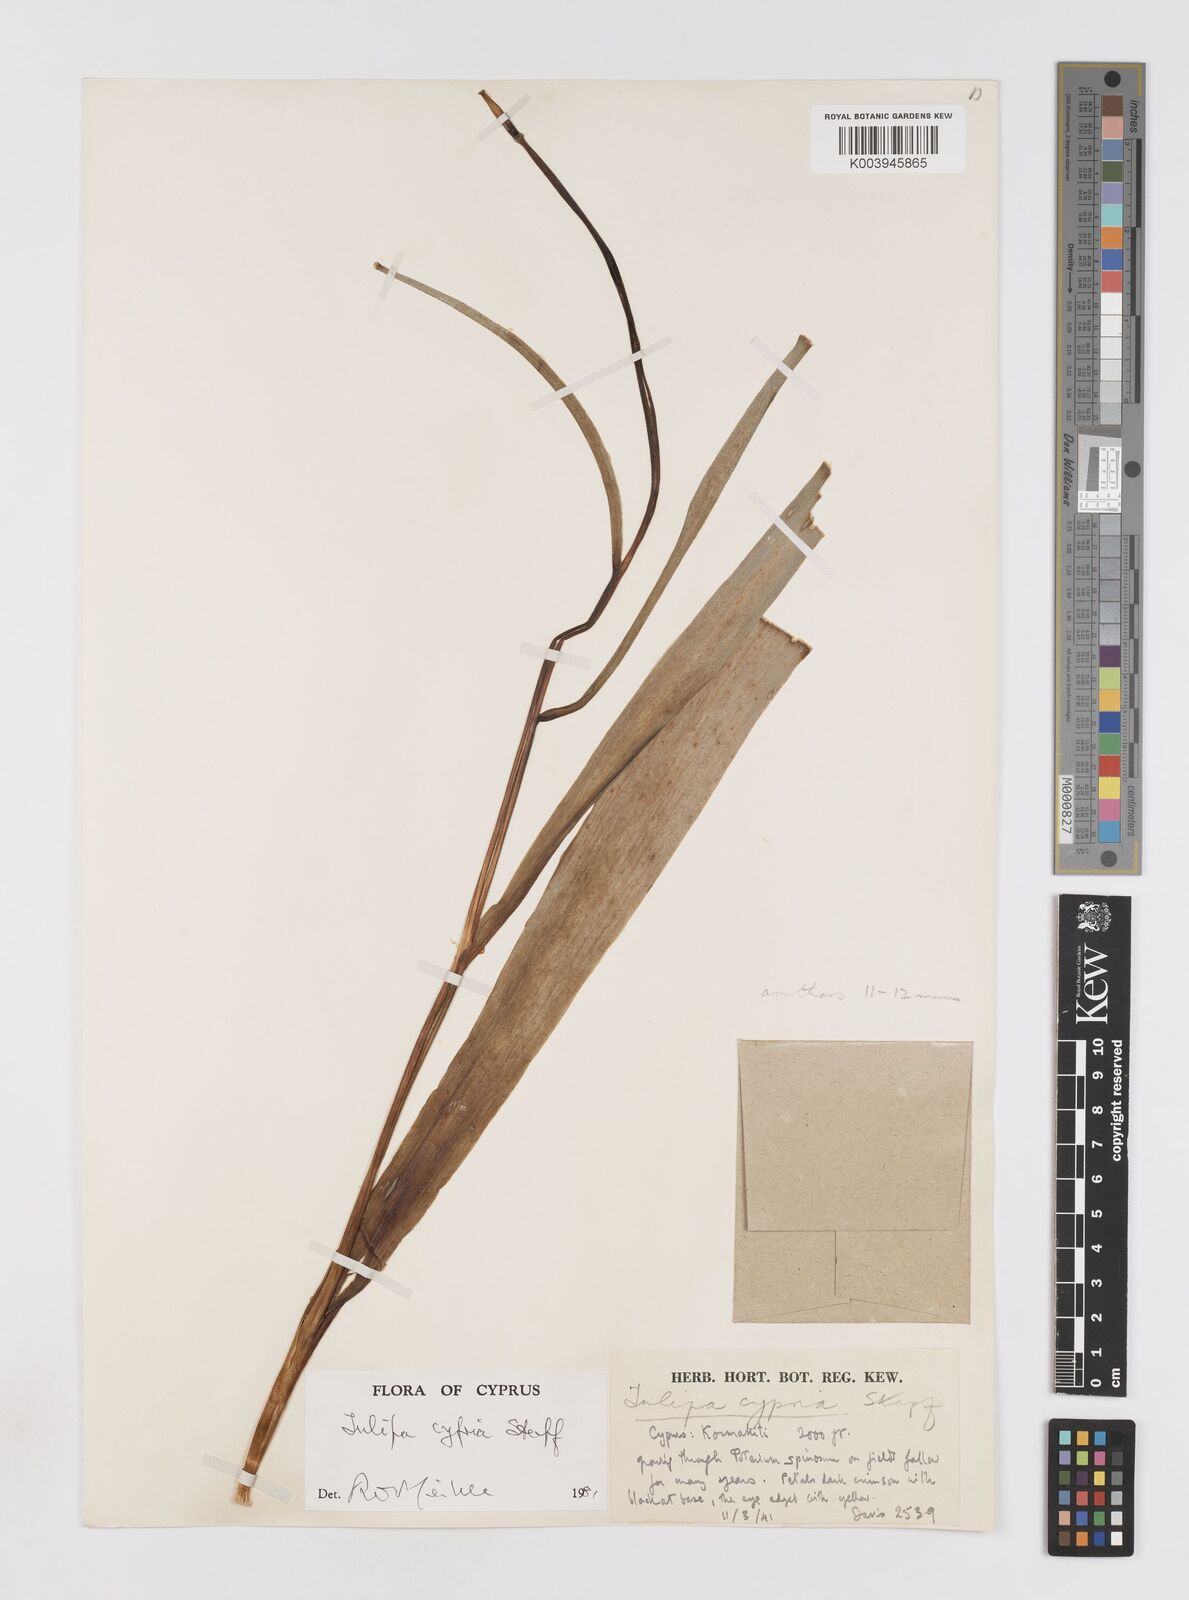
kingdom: Plantae
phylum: Tracheophyta
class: Liliopsida
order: Liliales
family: Liliaceae
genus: Tulipa
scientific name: Tulipa agenensis
